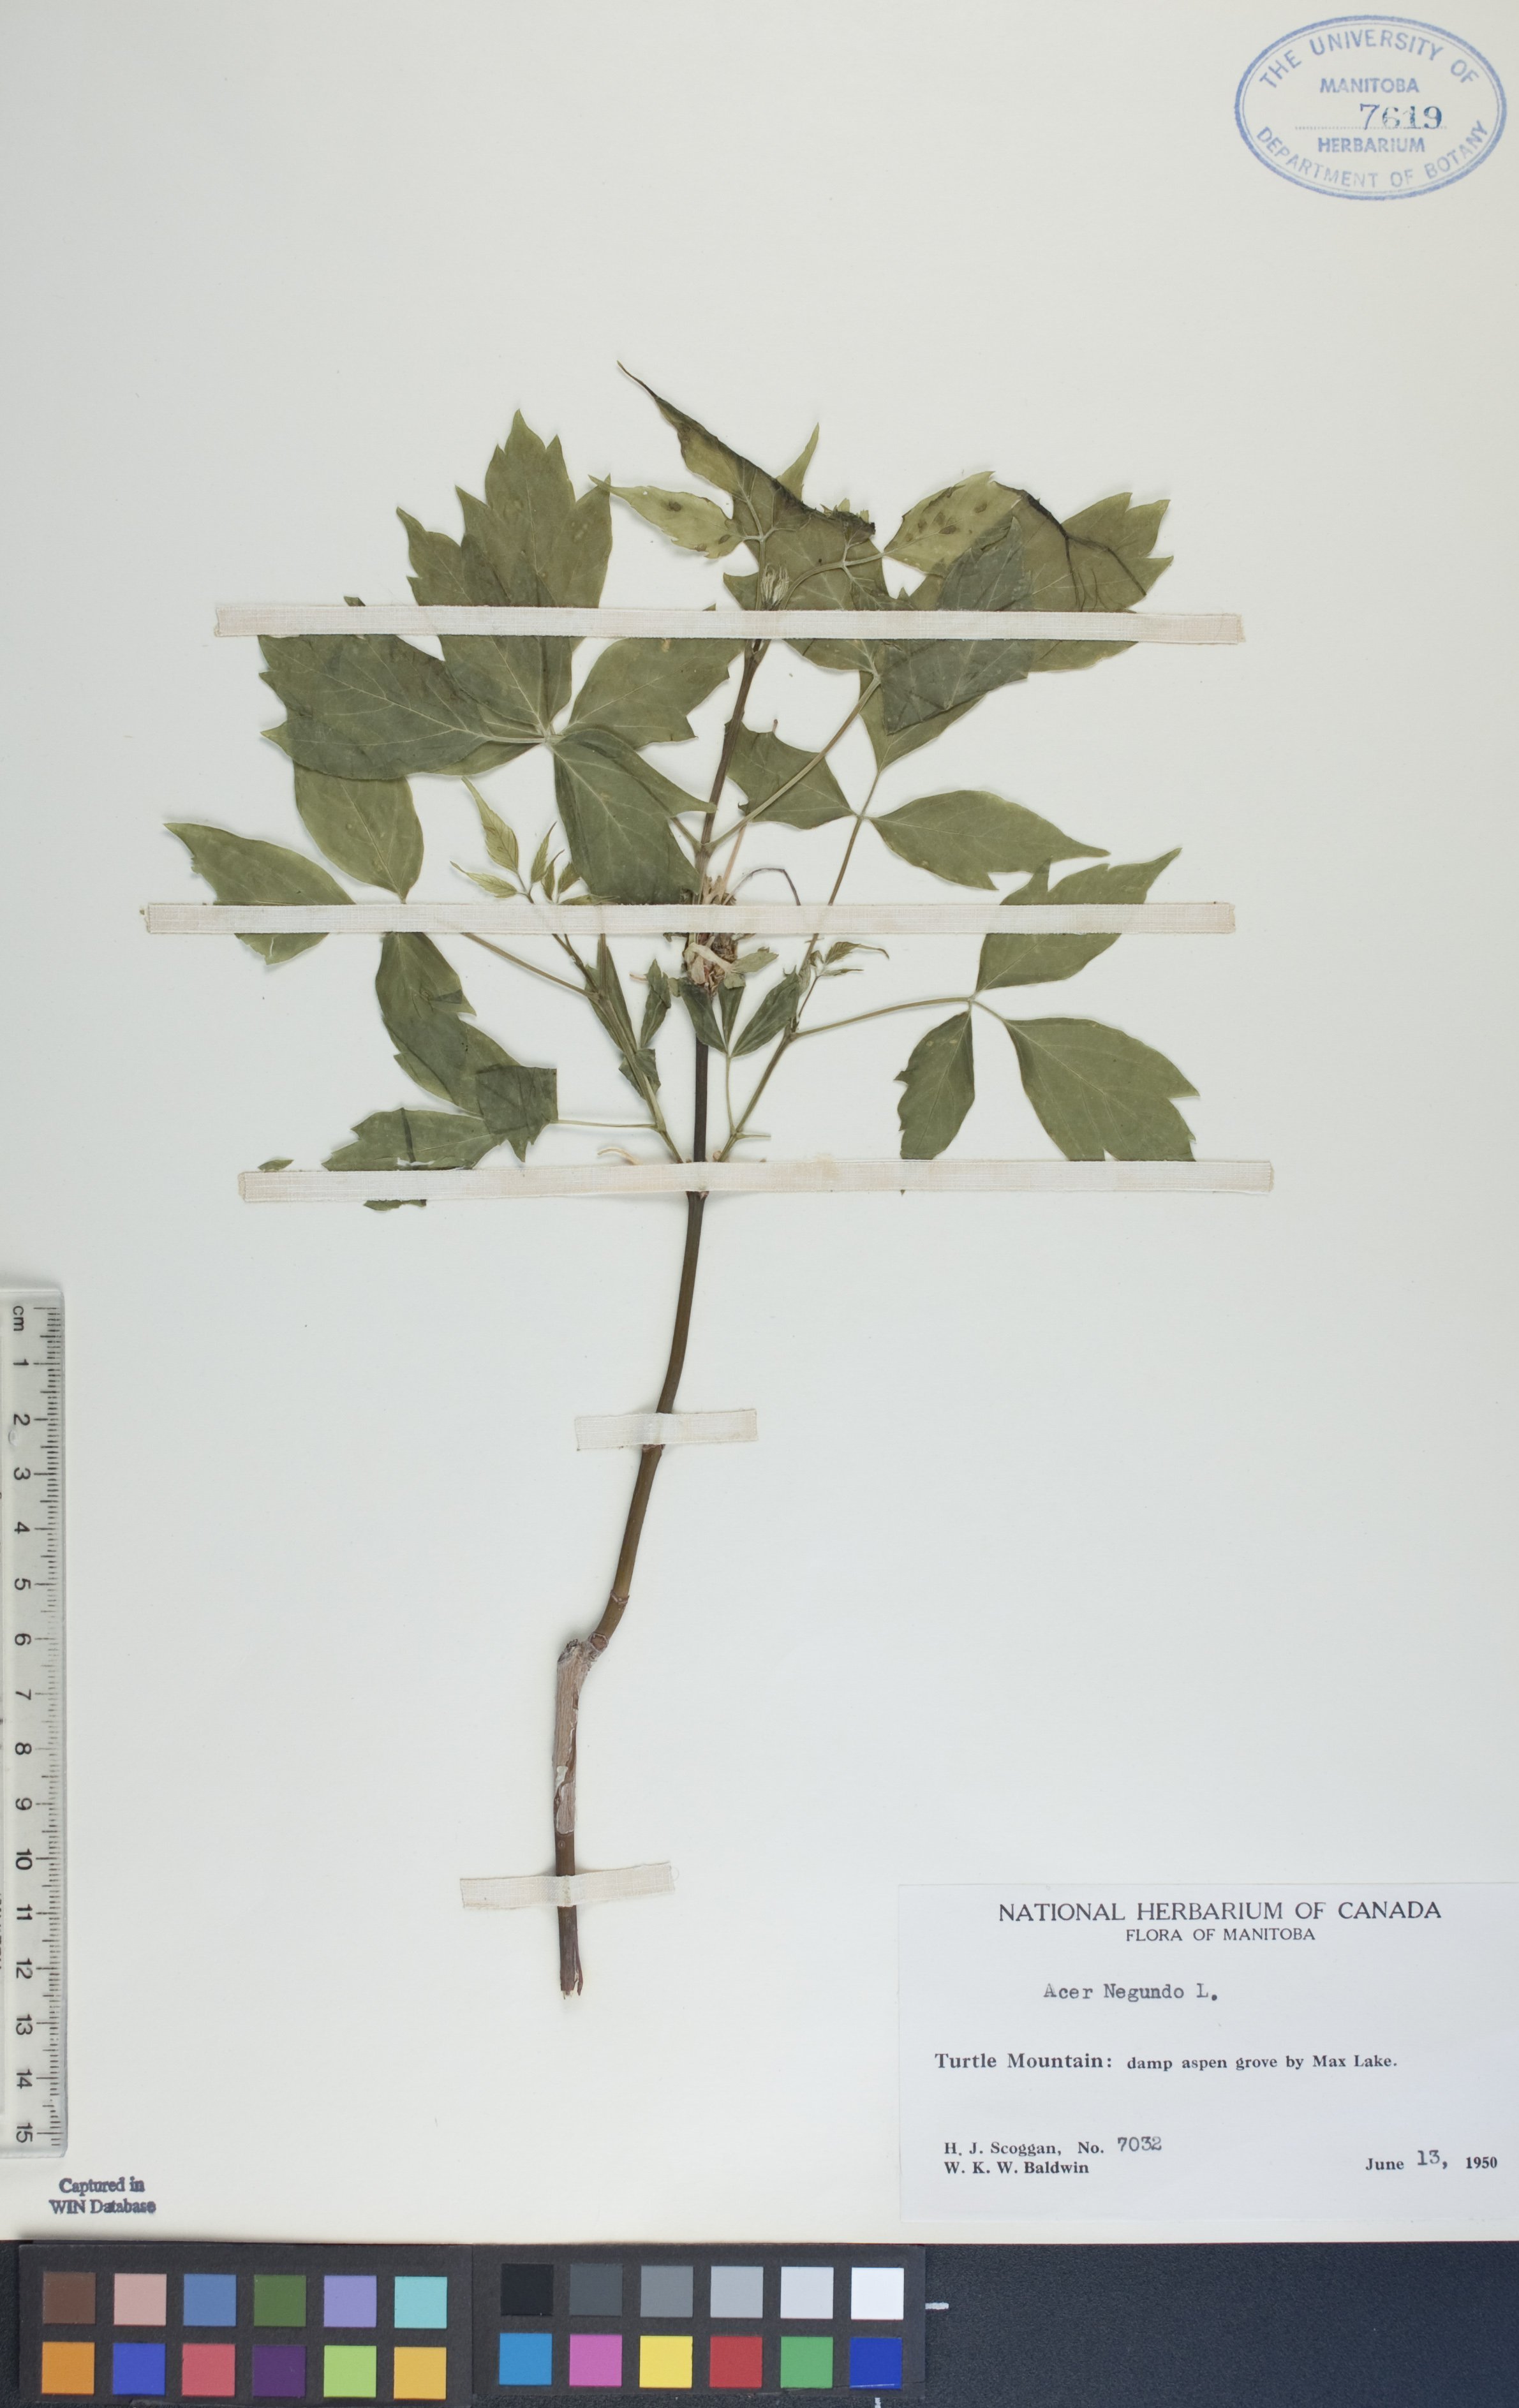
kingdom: Plantae
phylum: Tracheophyta
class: Magnoliopsida
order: Sapindales
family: Sapindaceae
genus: Acer
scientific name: Acer negundo
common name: Ashleaf maple
